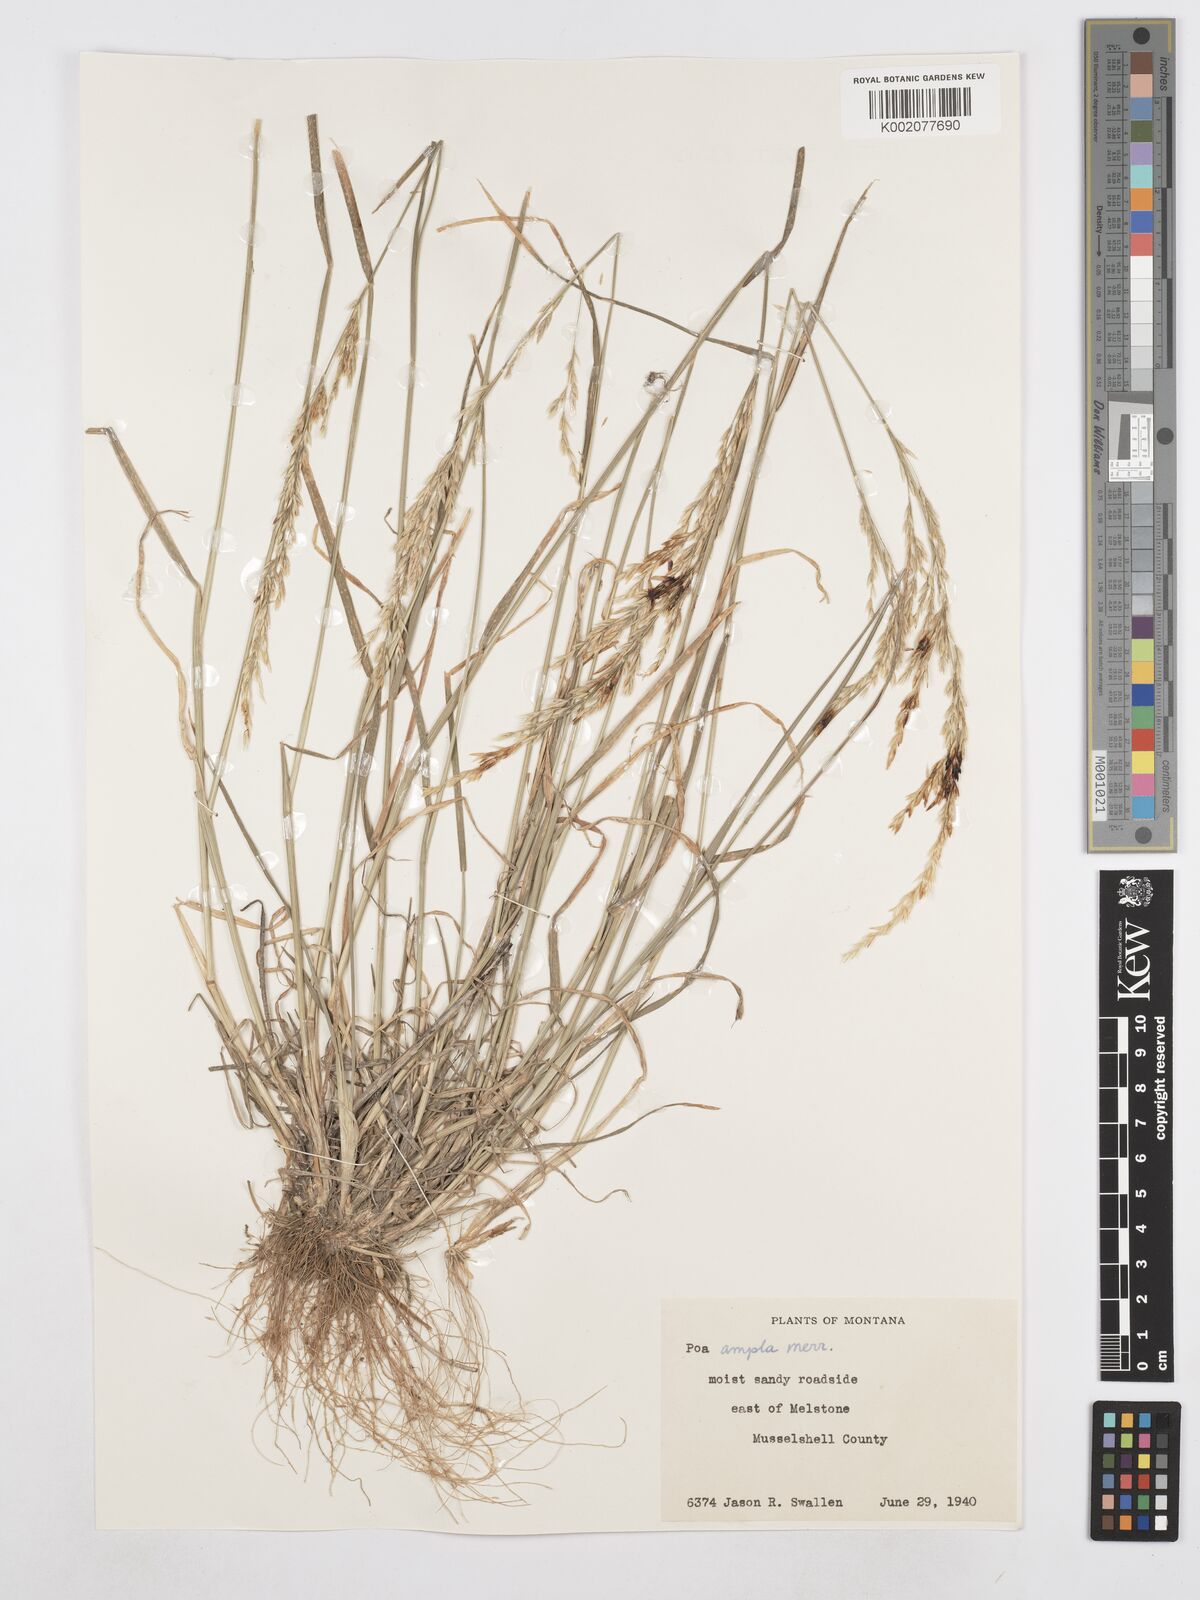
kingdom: Plantae
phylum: Tracheophyta
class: Liliopsida
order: Poales
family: Poaceae
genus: Poa
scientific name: Poa secunda
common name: Sandberg bluegrass
